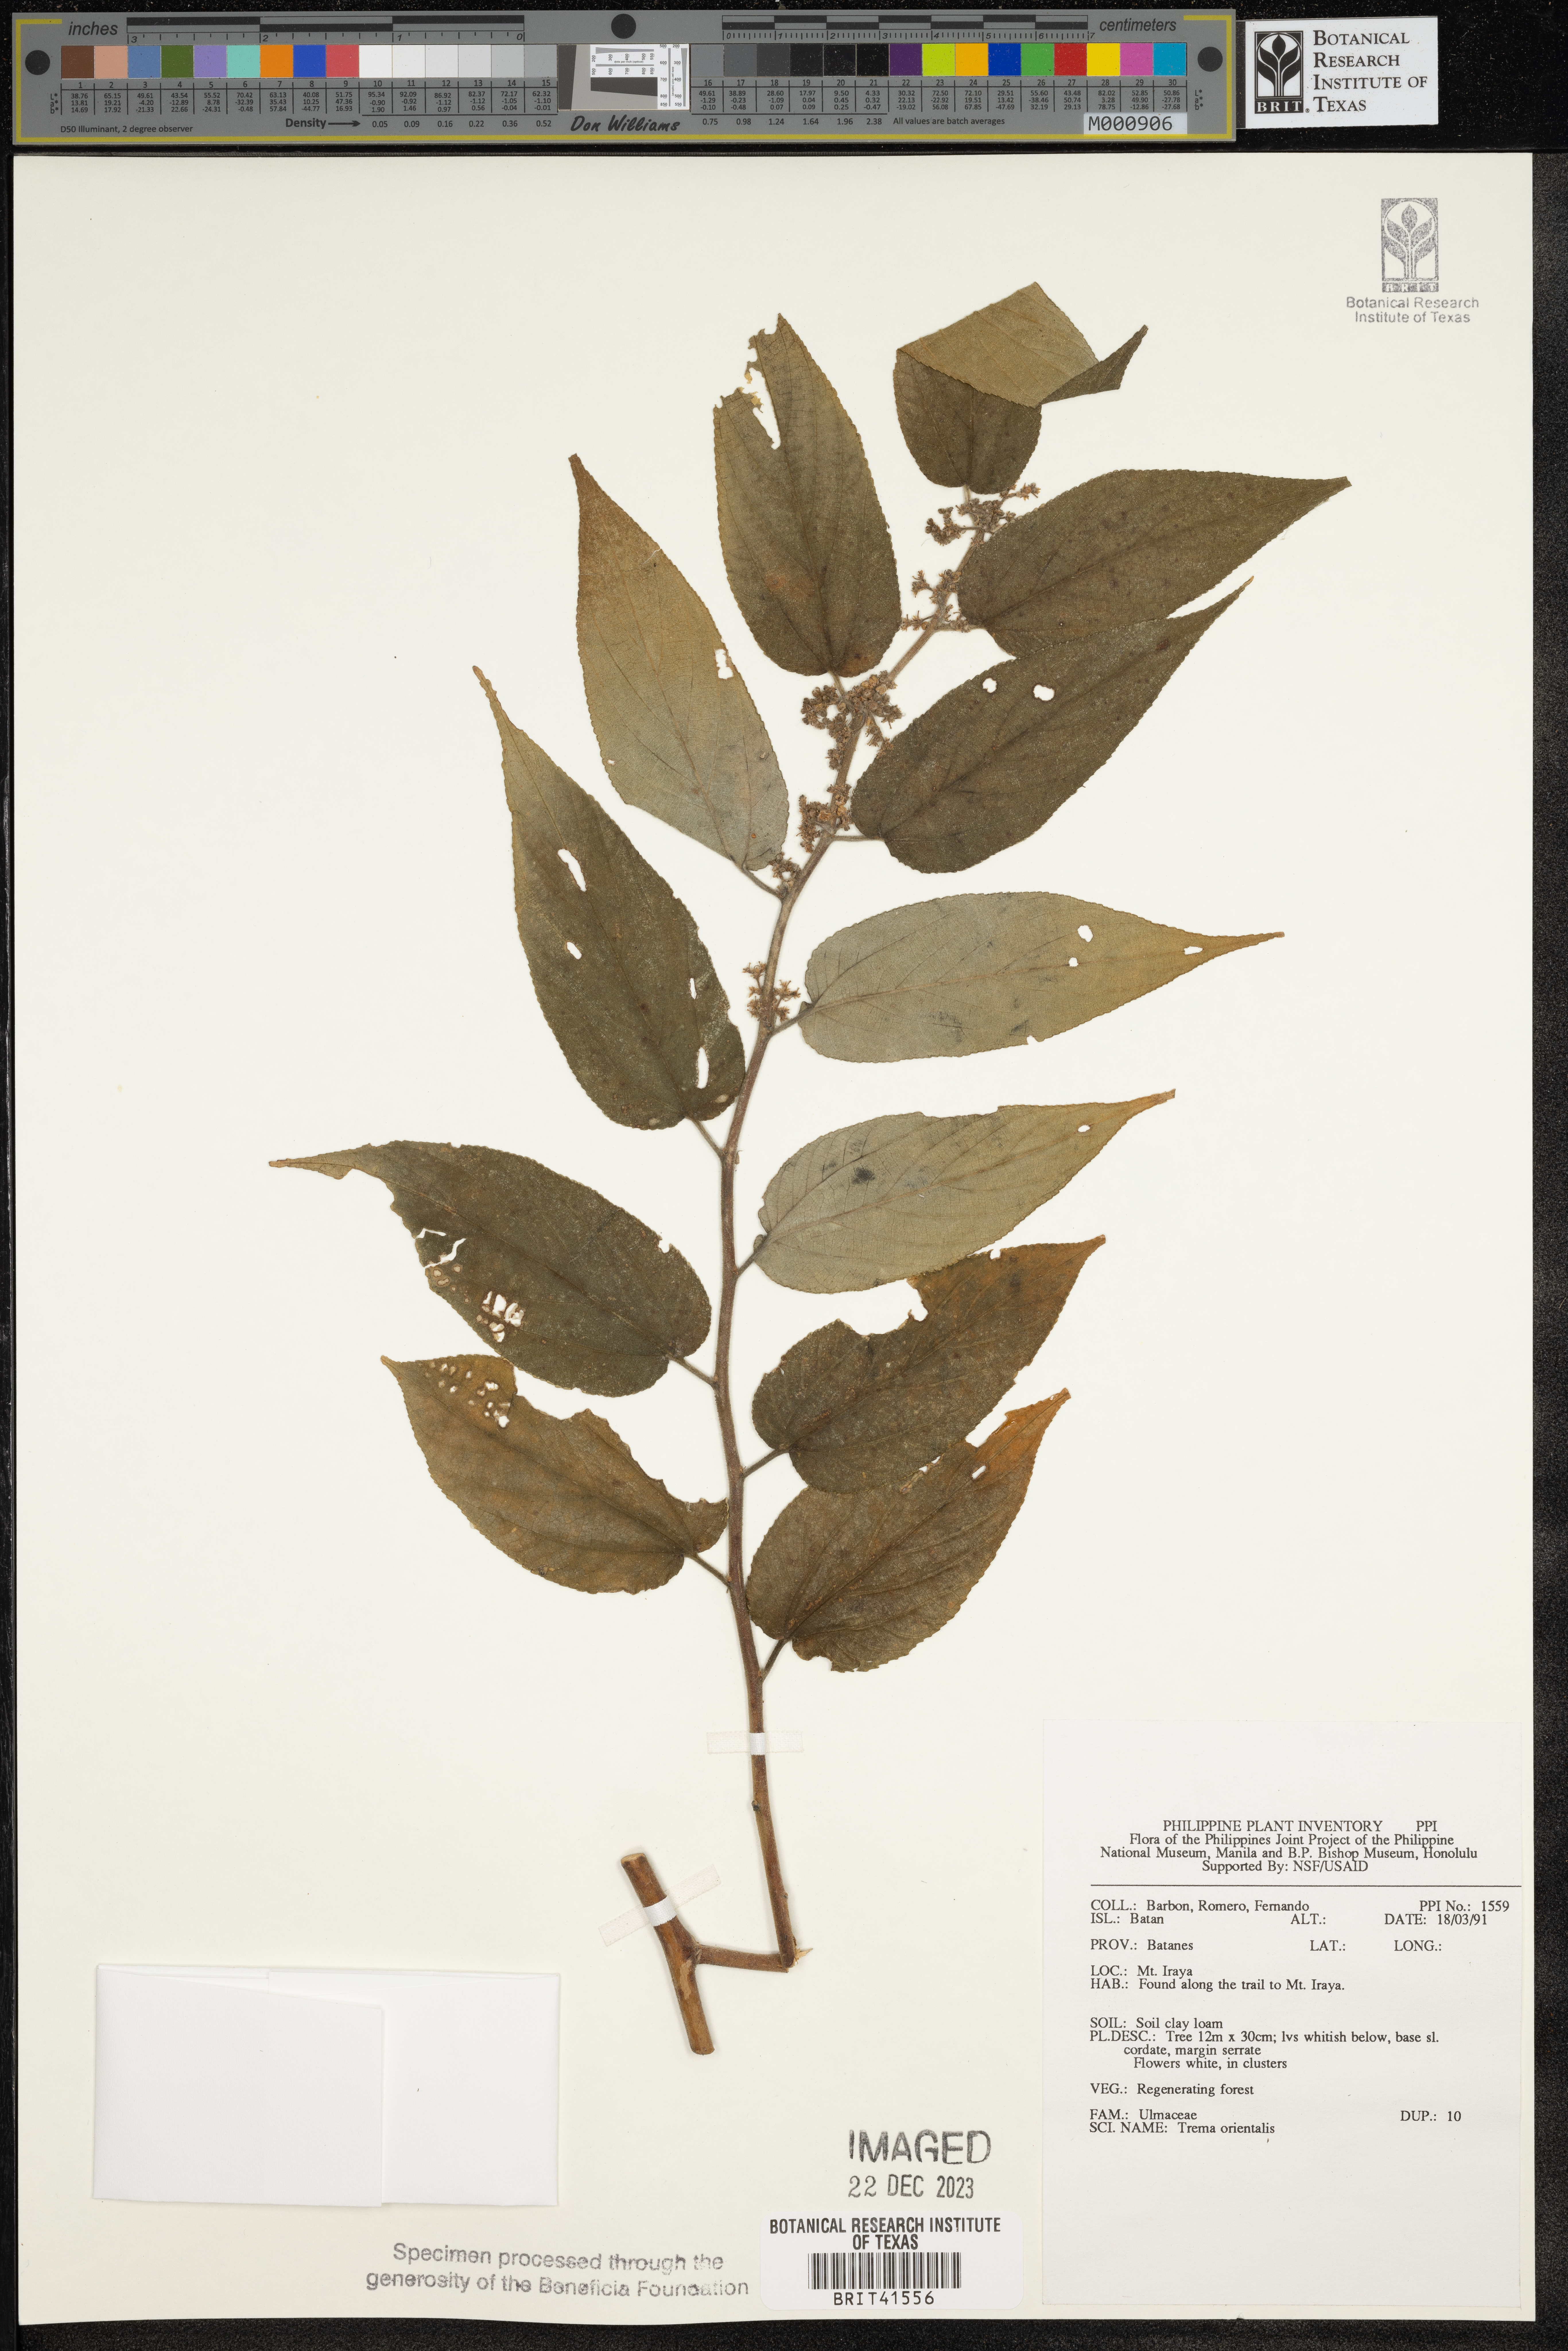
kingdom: Plantae
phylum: Tracheophyta
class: Magnoliopsida
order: Rosales
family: Cannabaceae
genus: Trema
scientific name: Trema orientale
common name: Indian charcoal tree
